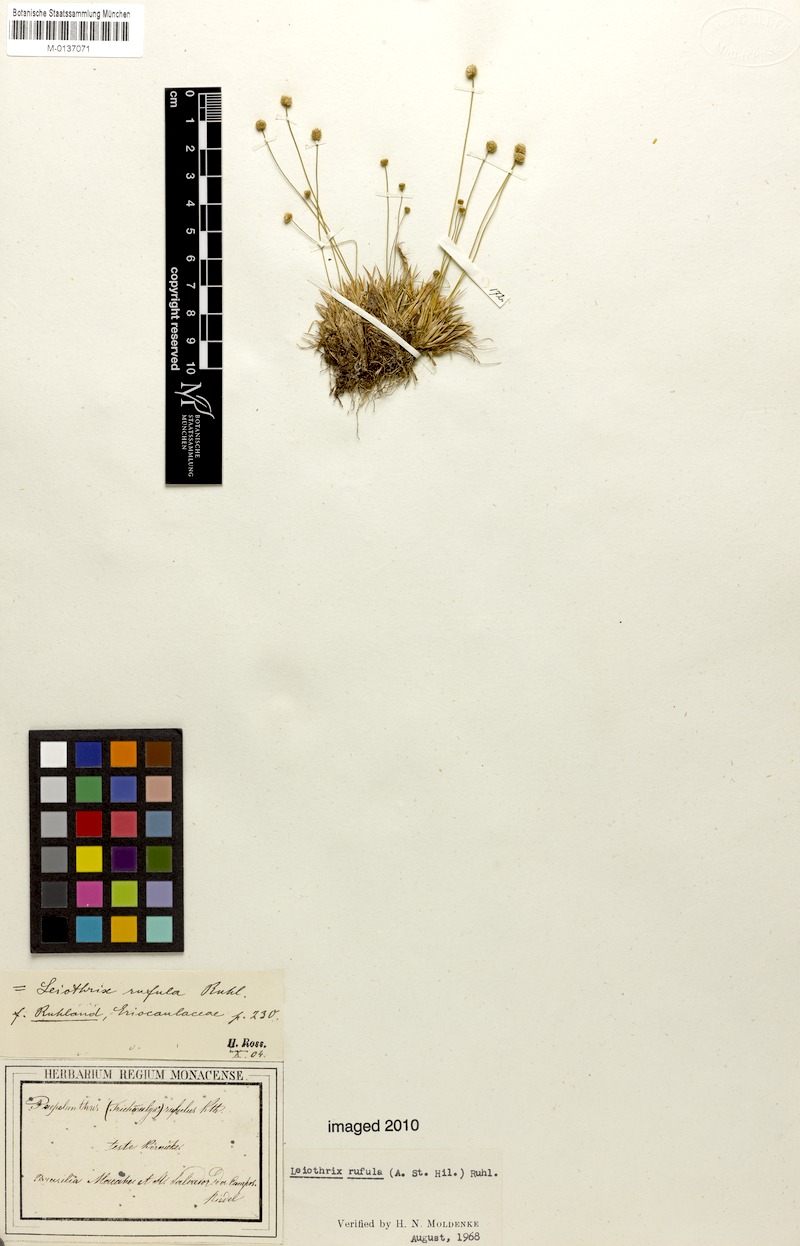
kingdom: Plantae
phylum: Tracheophyta
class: Liliopsida
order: Poales
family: Eriocaulaceae
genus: Leiothrix
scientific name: Leiothrix rufula
